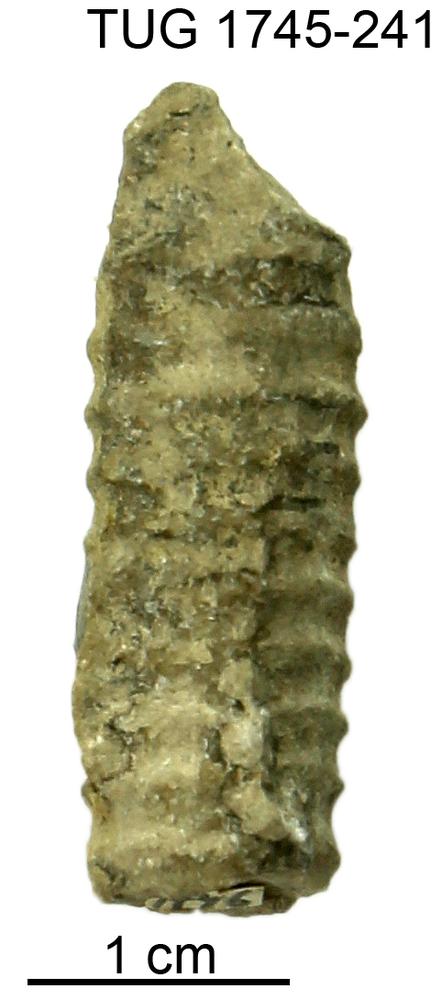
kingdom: Animalia
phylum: Mollusca
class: Cephalopoda
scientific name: Cephalopoda
